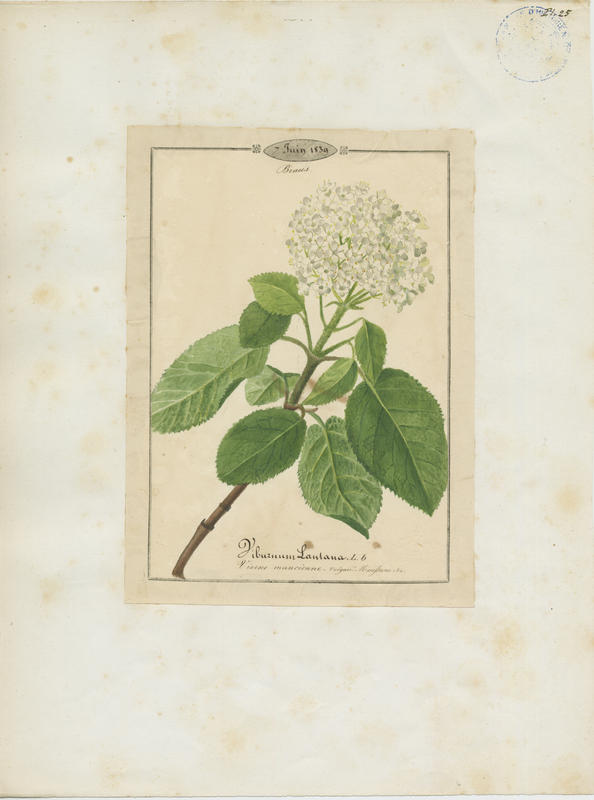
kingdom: Plantae
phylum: Tracheophyta
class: Magnoliopsida
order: Dipsacales
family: Viburnaceae
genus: Viburnum
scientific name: Viburnum lantana
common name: Wayfaring tree
